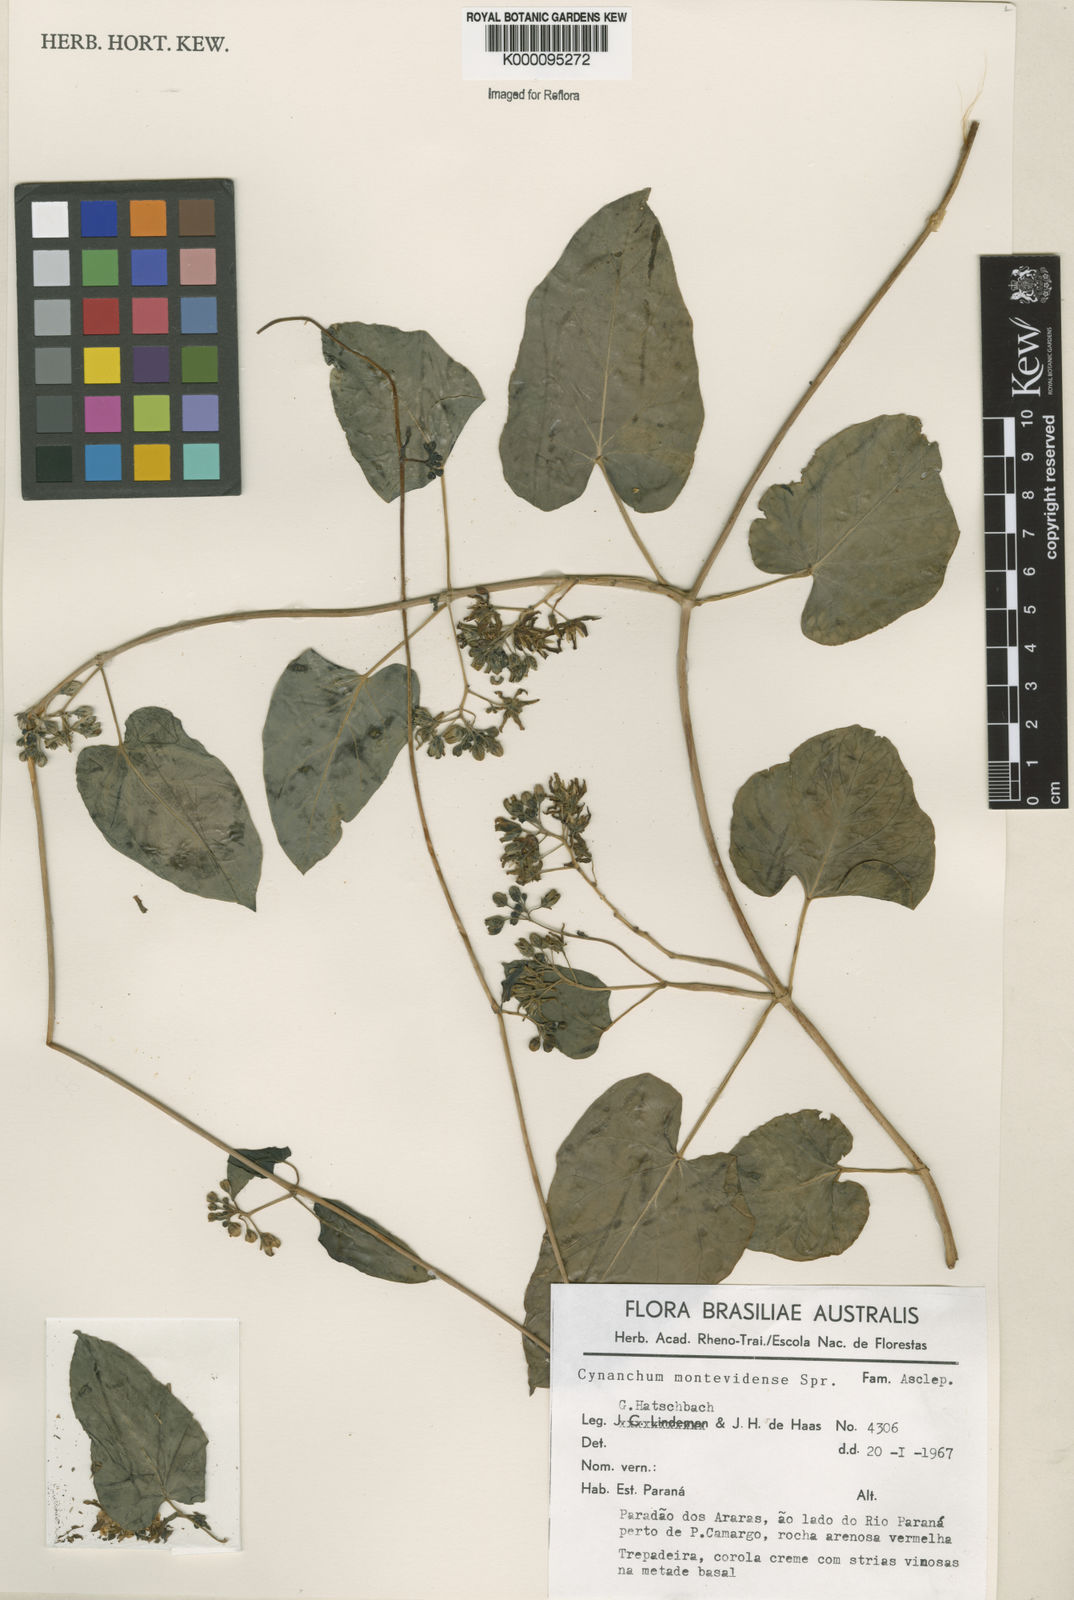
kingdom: Plantae
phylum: Tracheophyta
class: Magnoliopsida
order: Gentianales
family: Apocynaceae
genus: Cynanchum
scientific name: Cynanchum montevidense
